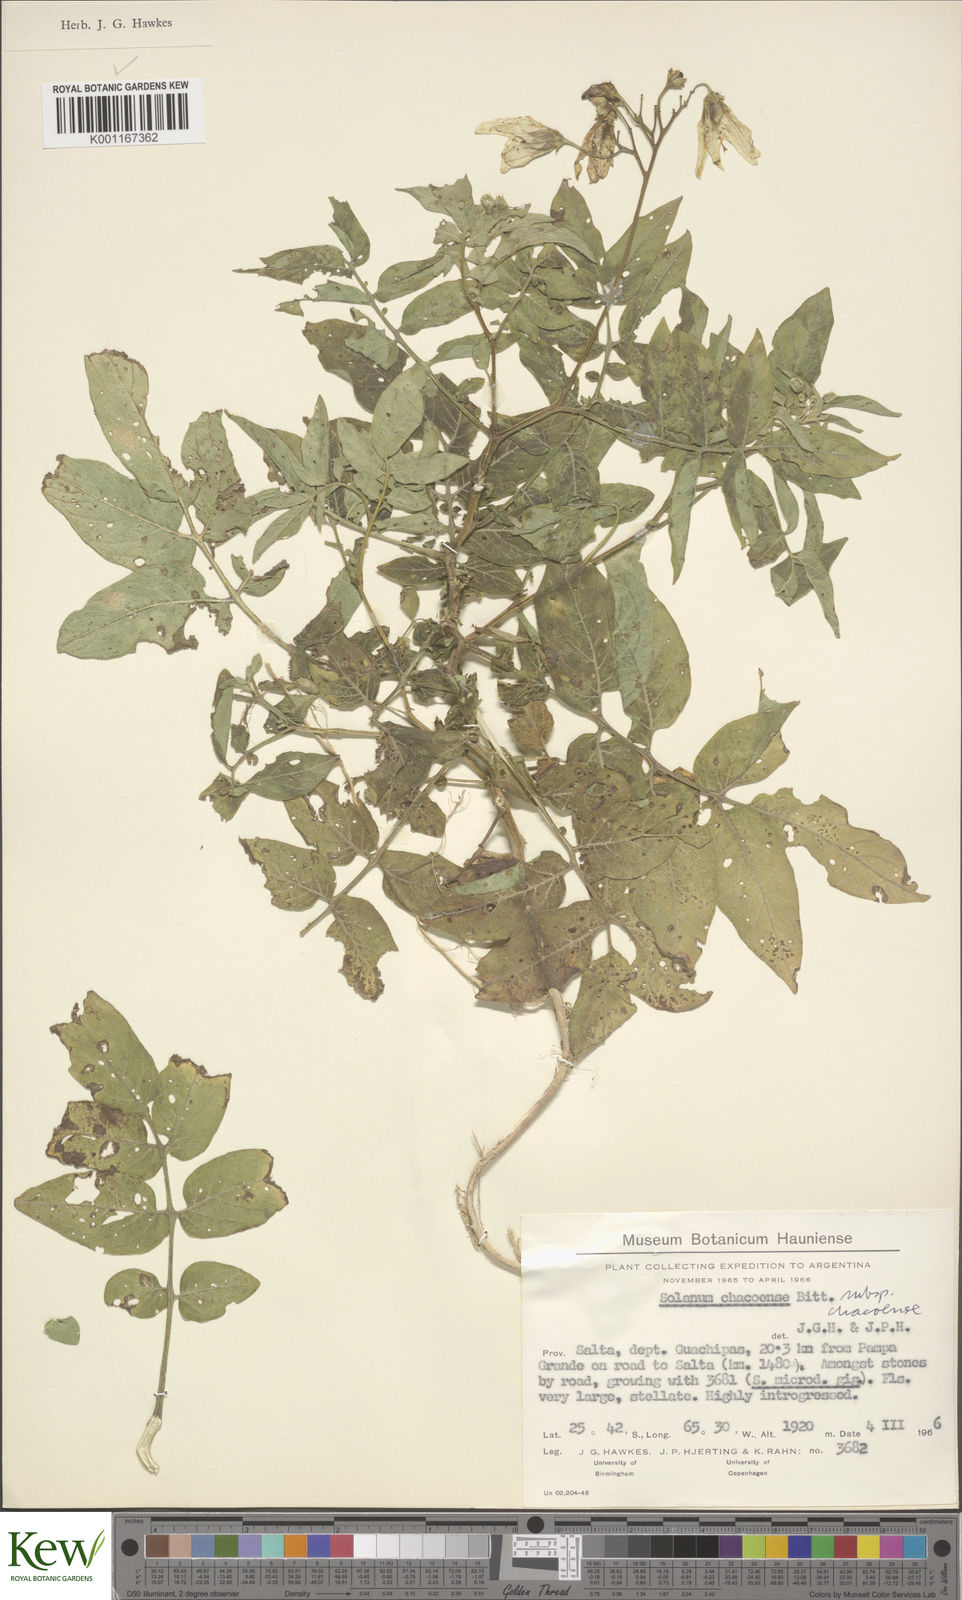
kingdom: Plantae
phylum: Tracheophyta
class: Magnoliopsida
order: Solanales
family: Solanaceae
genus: Solanum
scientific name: Solanum chacoense
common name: Chaco potato
